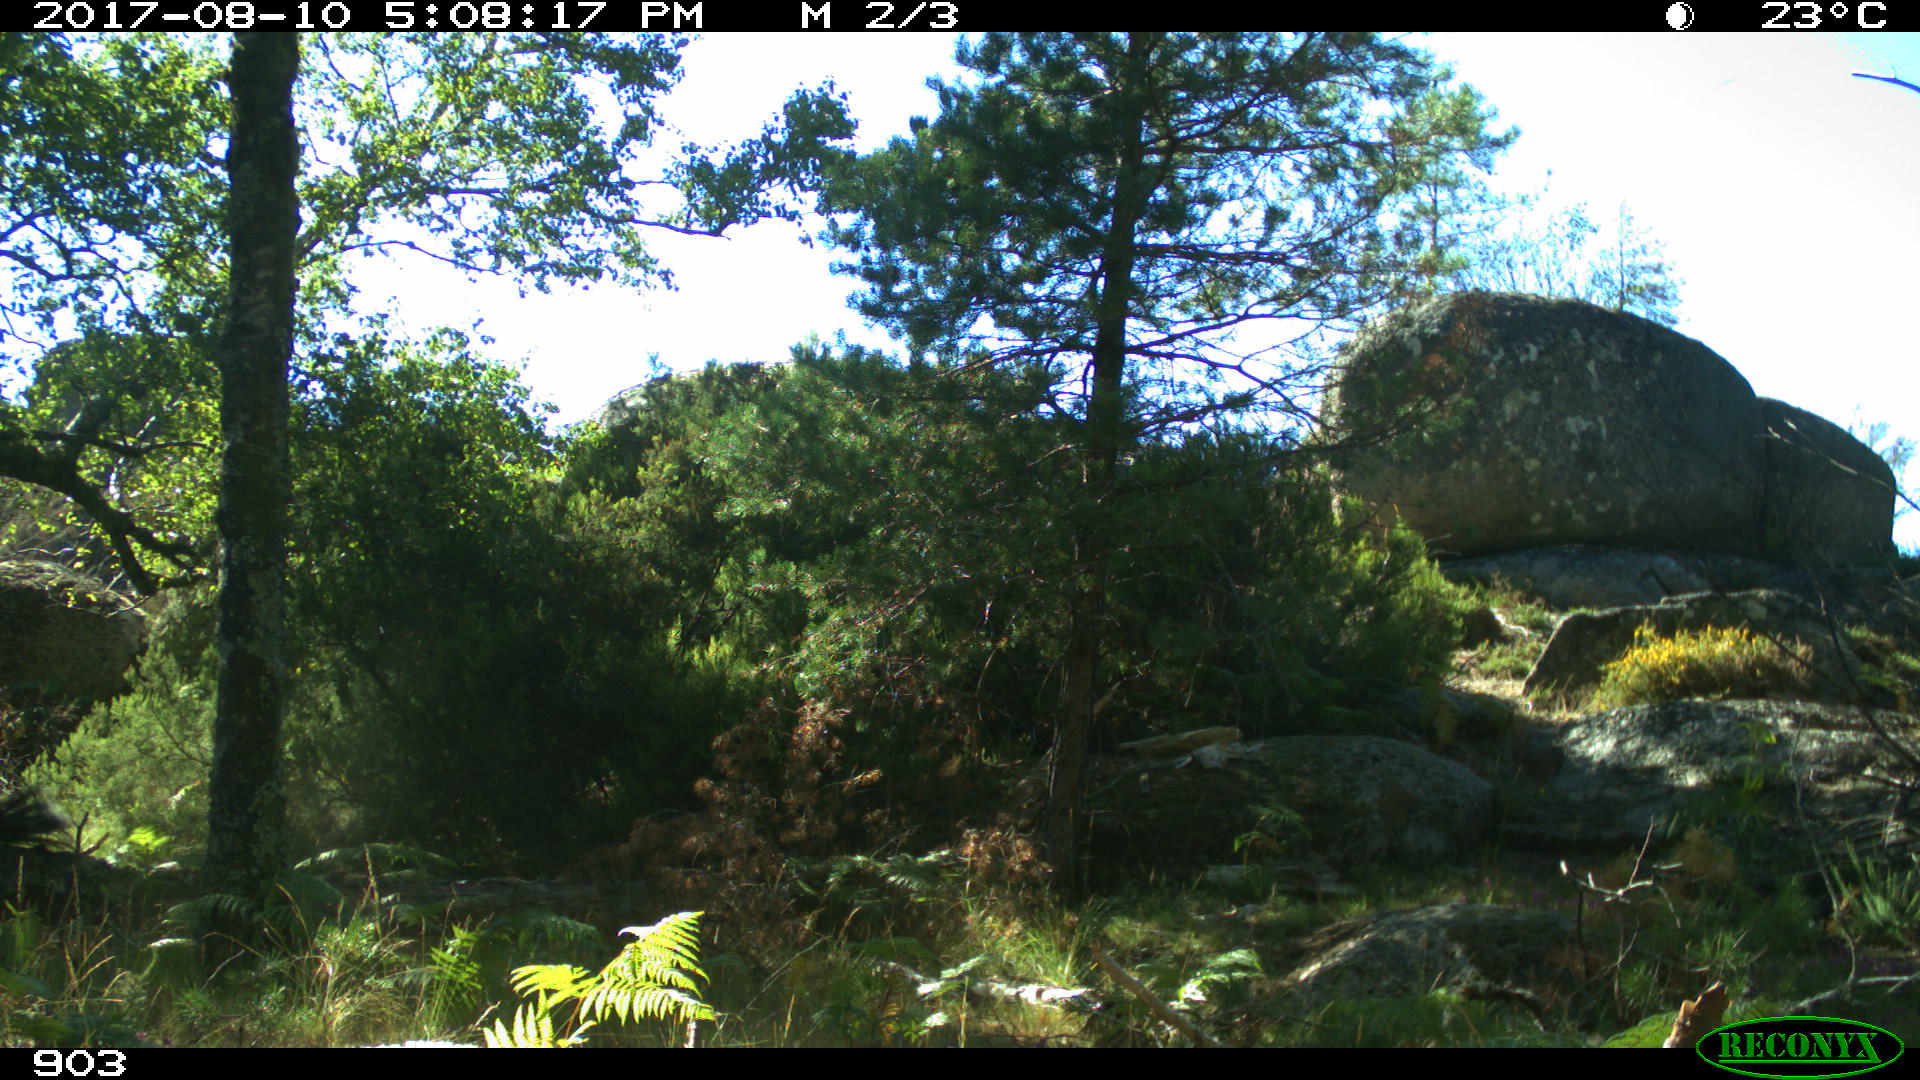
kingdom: Animalia
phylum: Chordata
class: Mammalia
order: Perissodactyla
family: Equidae
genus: Equus
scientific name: Equus caballus
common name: Horse
